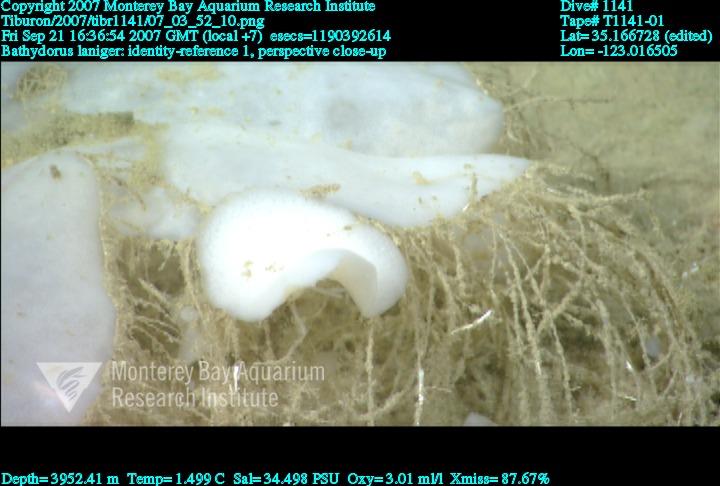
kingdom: Animalia
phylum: Porifera
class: Hexactinellida
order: Lyssacinosida
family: Rossellidae
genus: Bathydorus
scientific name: Bathydorus laniger
